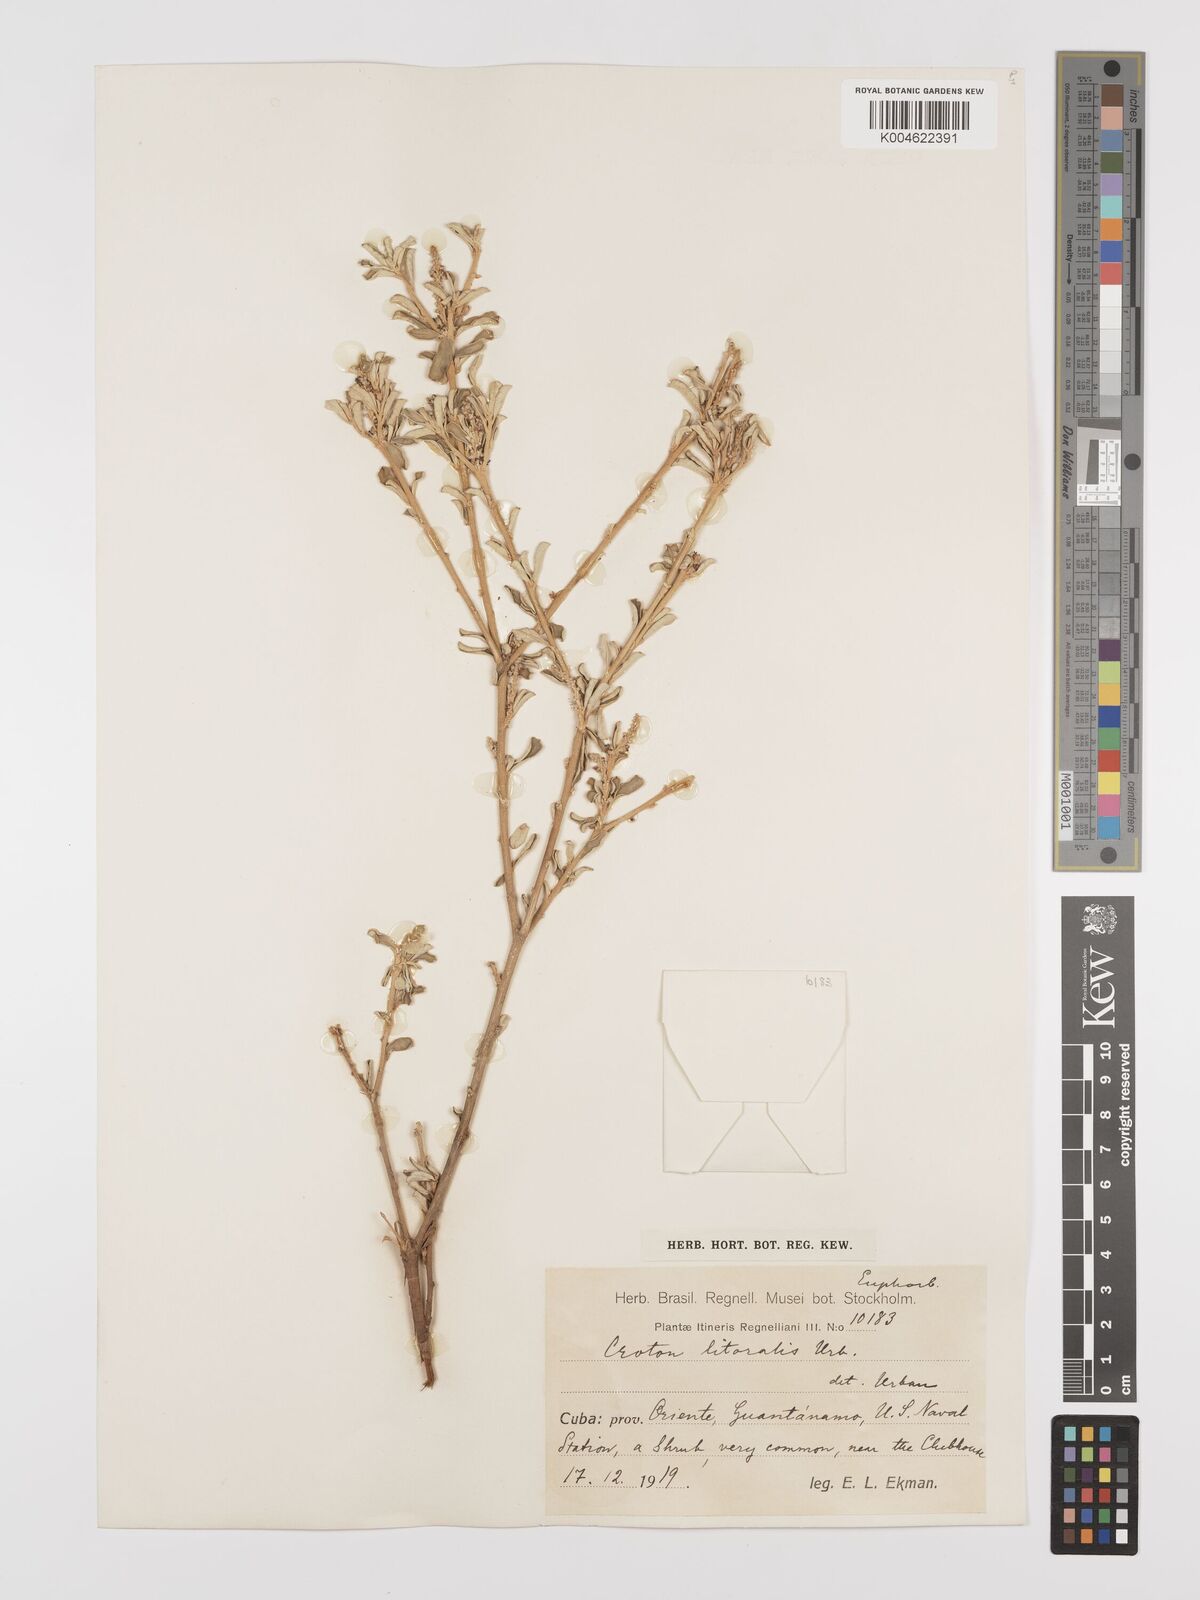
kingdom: Plantae
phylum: Tracheophyta
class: Magnoliopsida
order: Malpighiales
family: Euphorbiaceae
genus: Croton
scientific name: Croton stenophyllus
